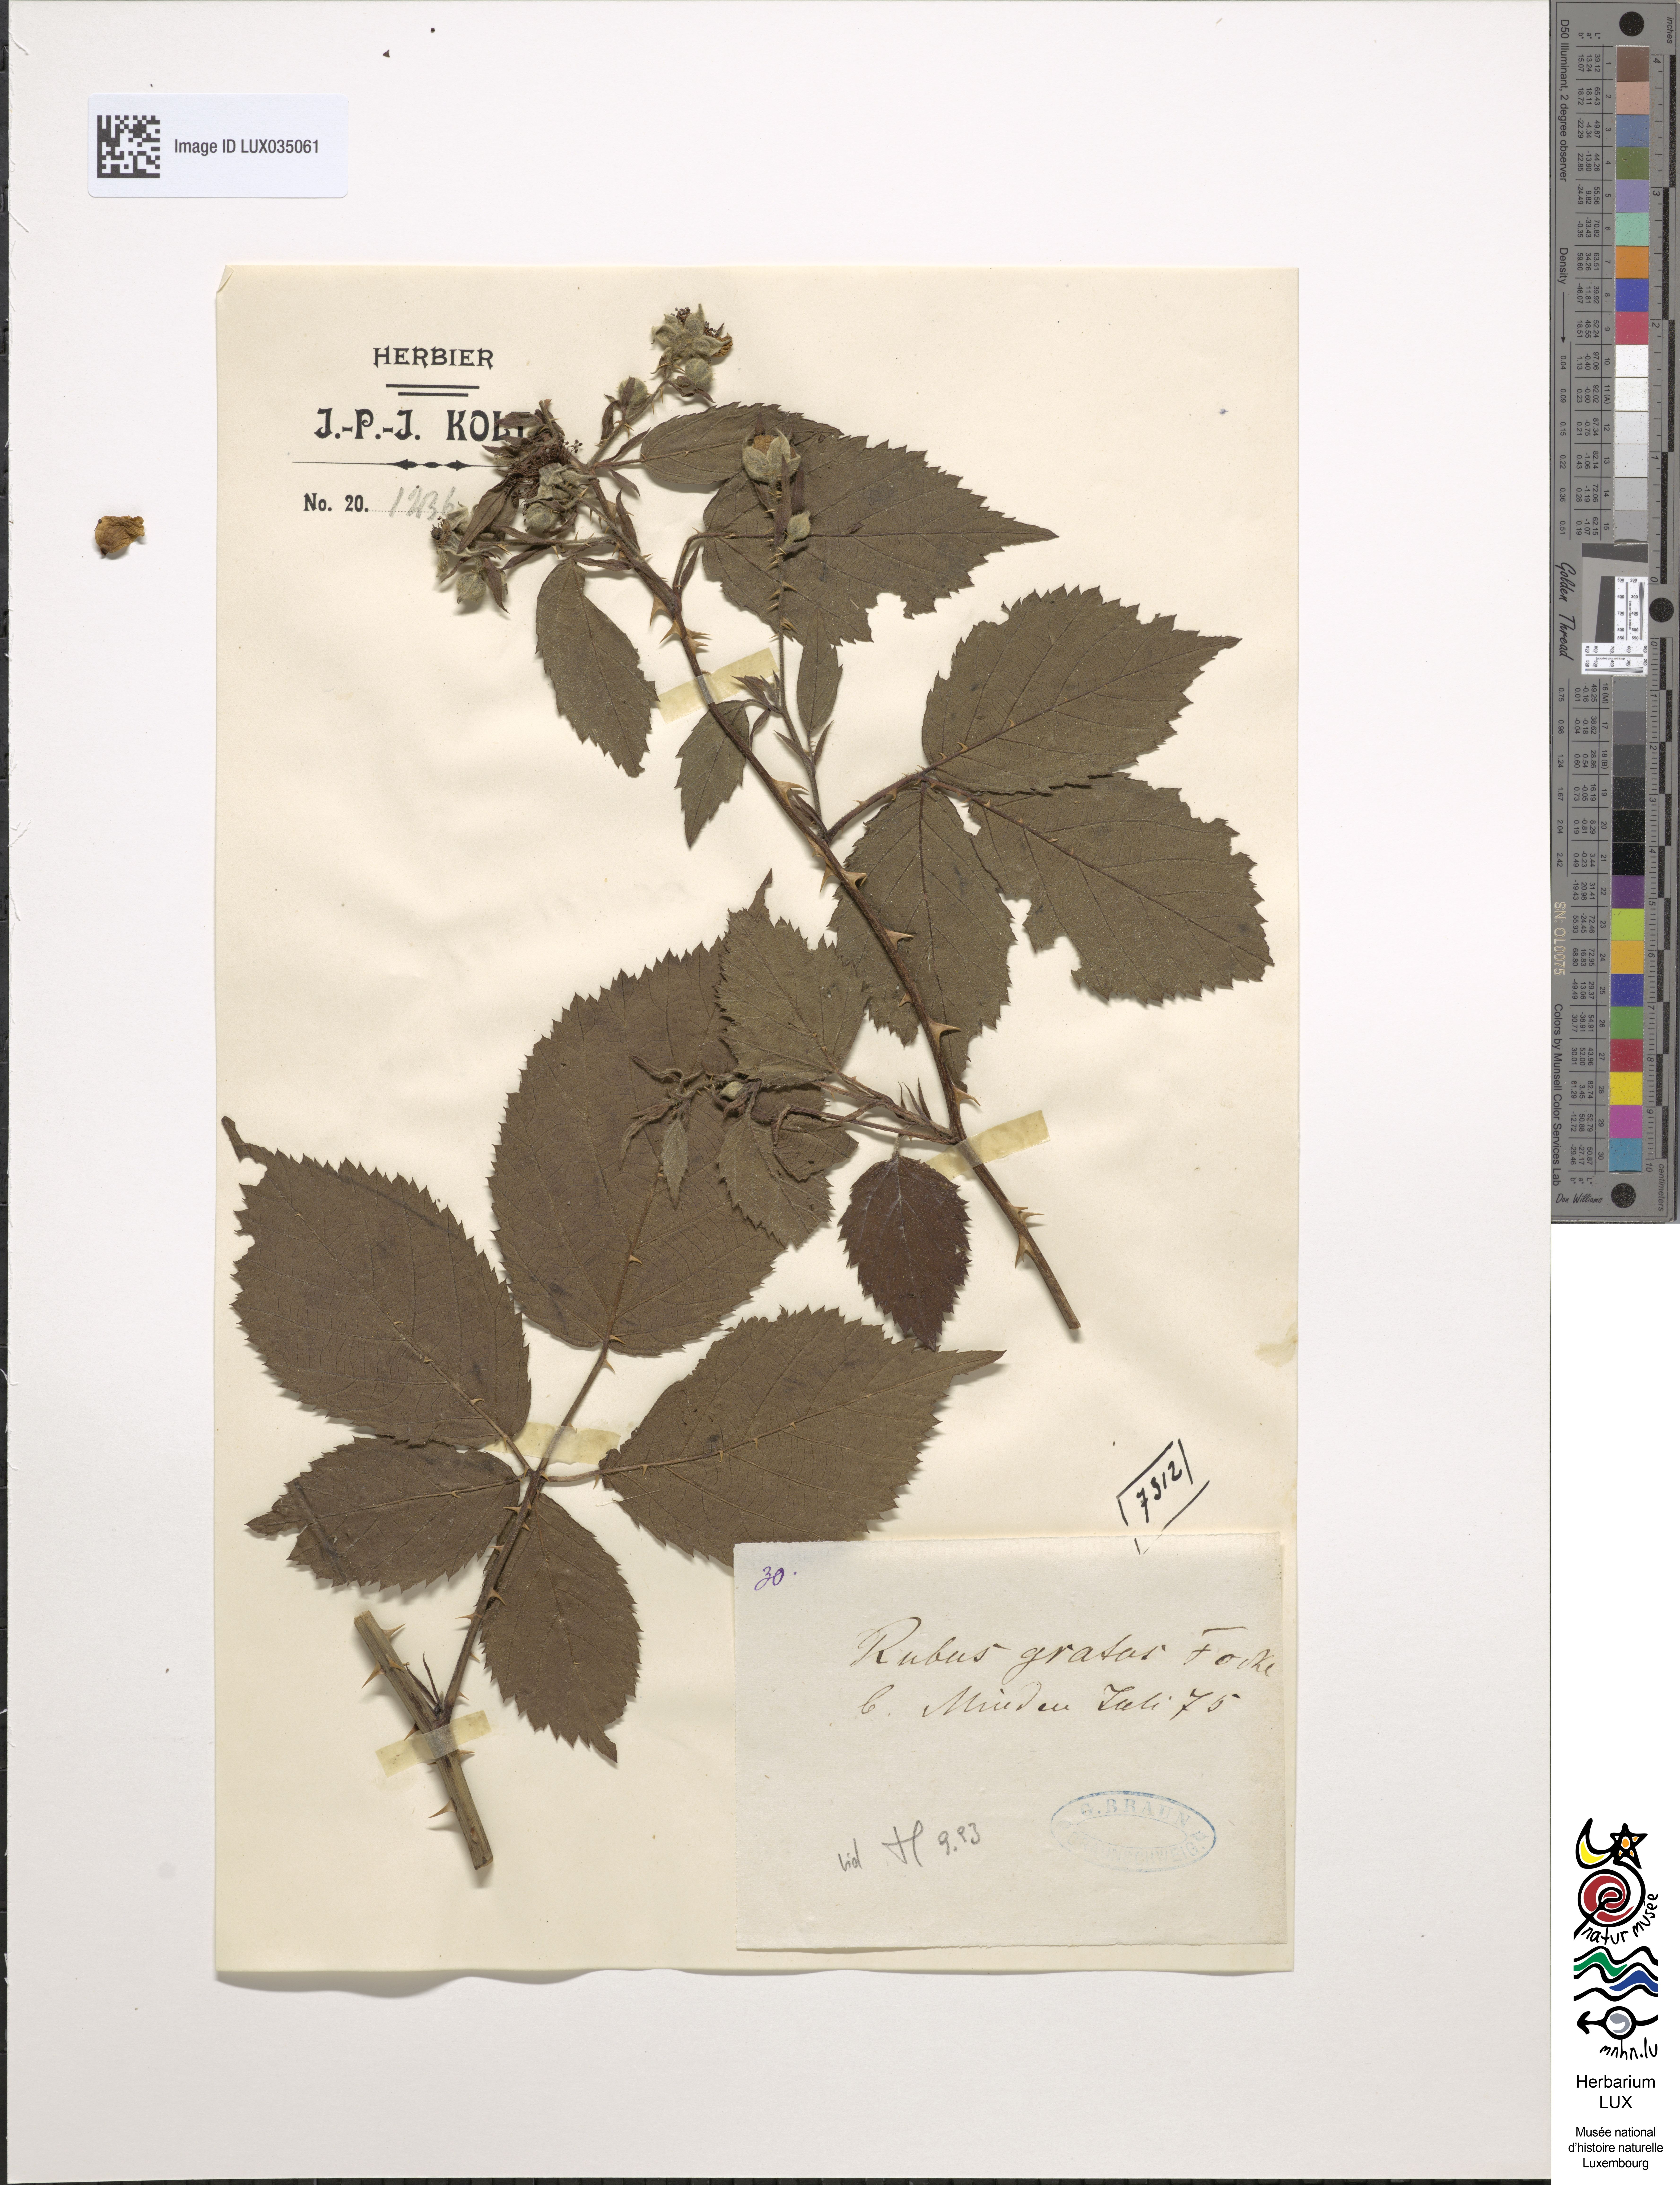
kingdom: Plantae
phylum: Tracheophyta
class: Magnoliopsida
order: Rosales
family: Rosaceae
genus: Rubus
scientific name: Rubus gratus
